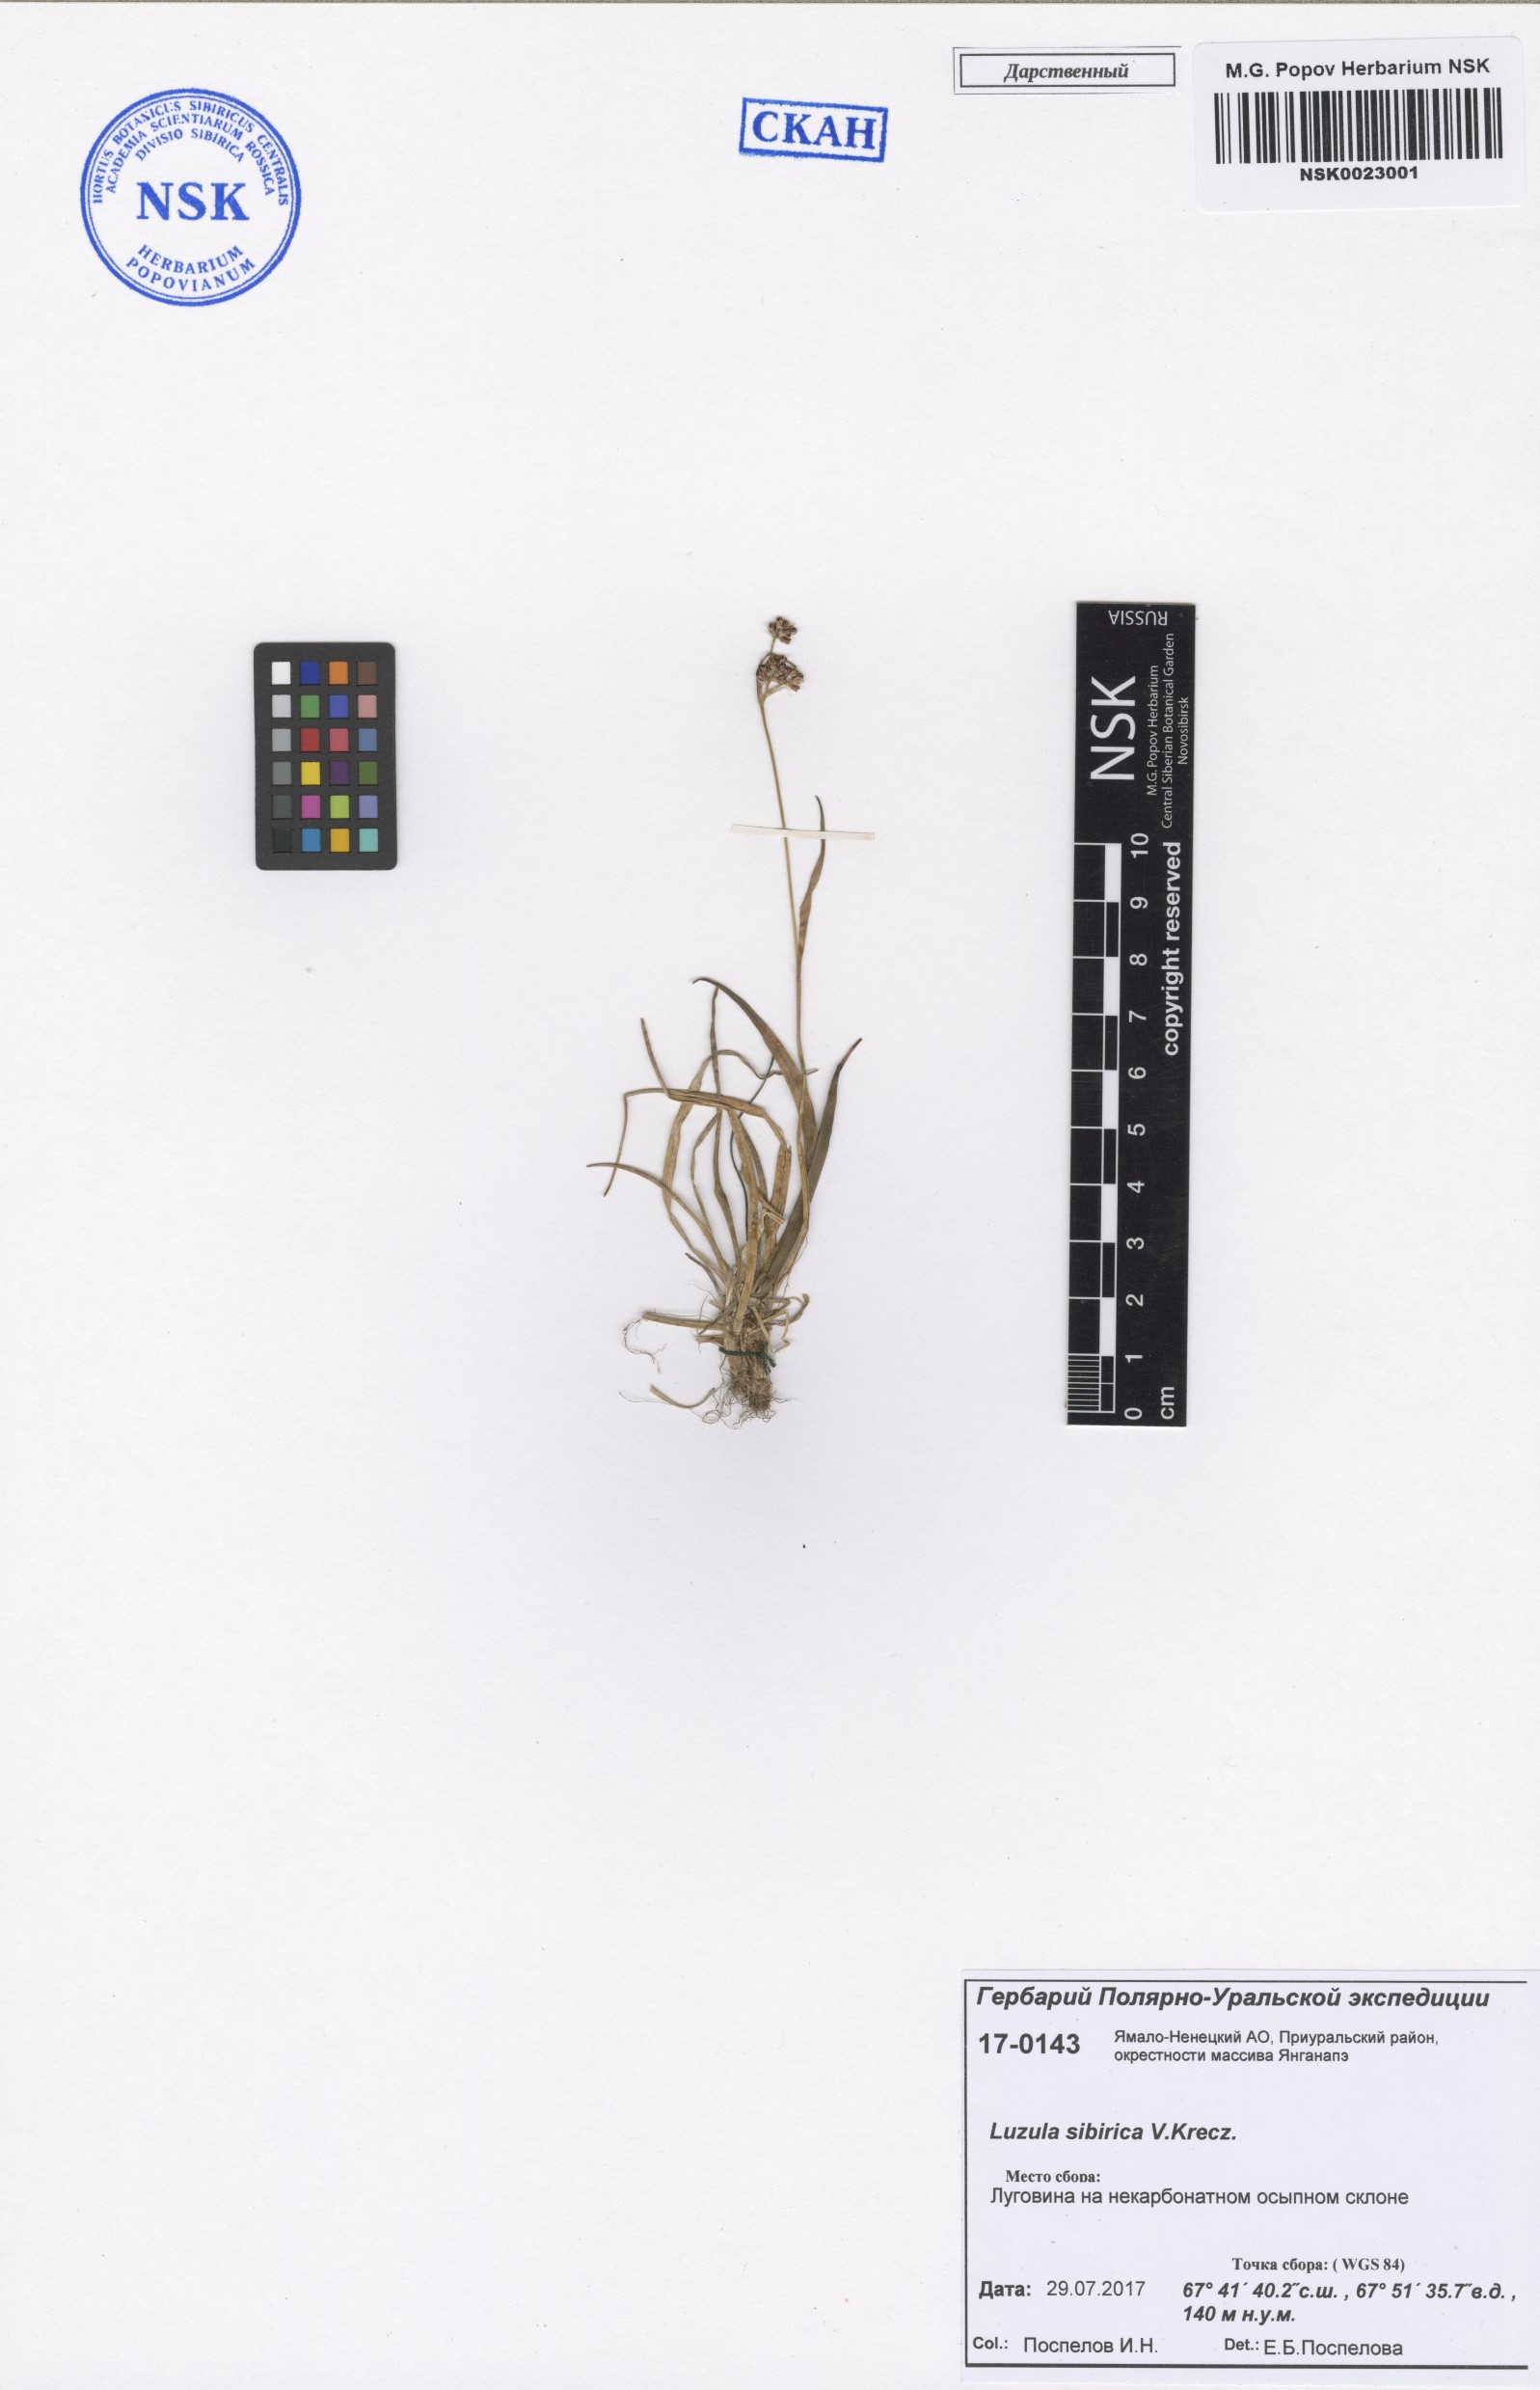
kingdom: Plantae
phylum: Tracheophyta
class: Liliopsida
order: Poales
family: Juncaceae
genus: Luzula
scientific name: Luzula multiflora
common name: Heath wood-rush
